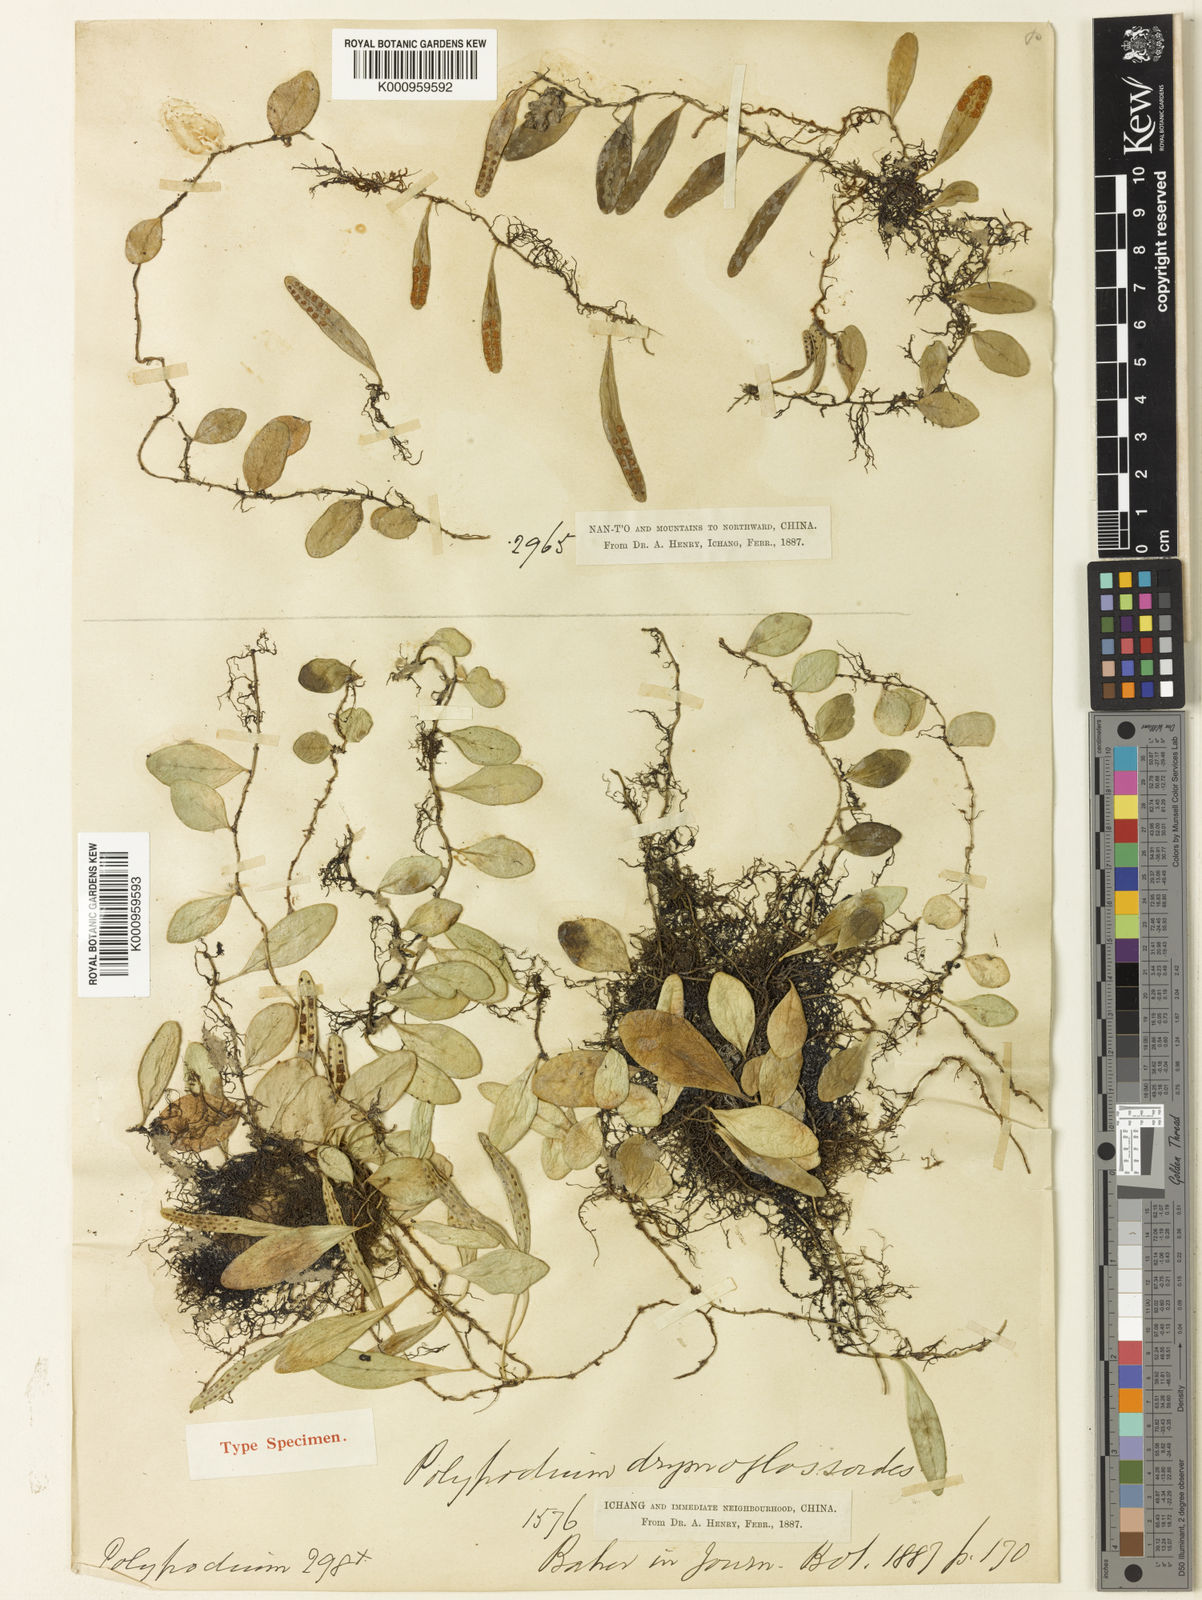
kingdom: Plantae
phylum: Tracheophyta
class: Polypodiopsida
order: Polypodiales
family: Polypodiaceae
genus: Lepisorus
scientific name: Lepisorus
